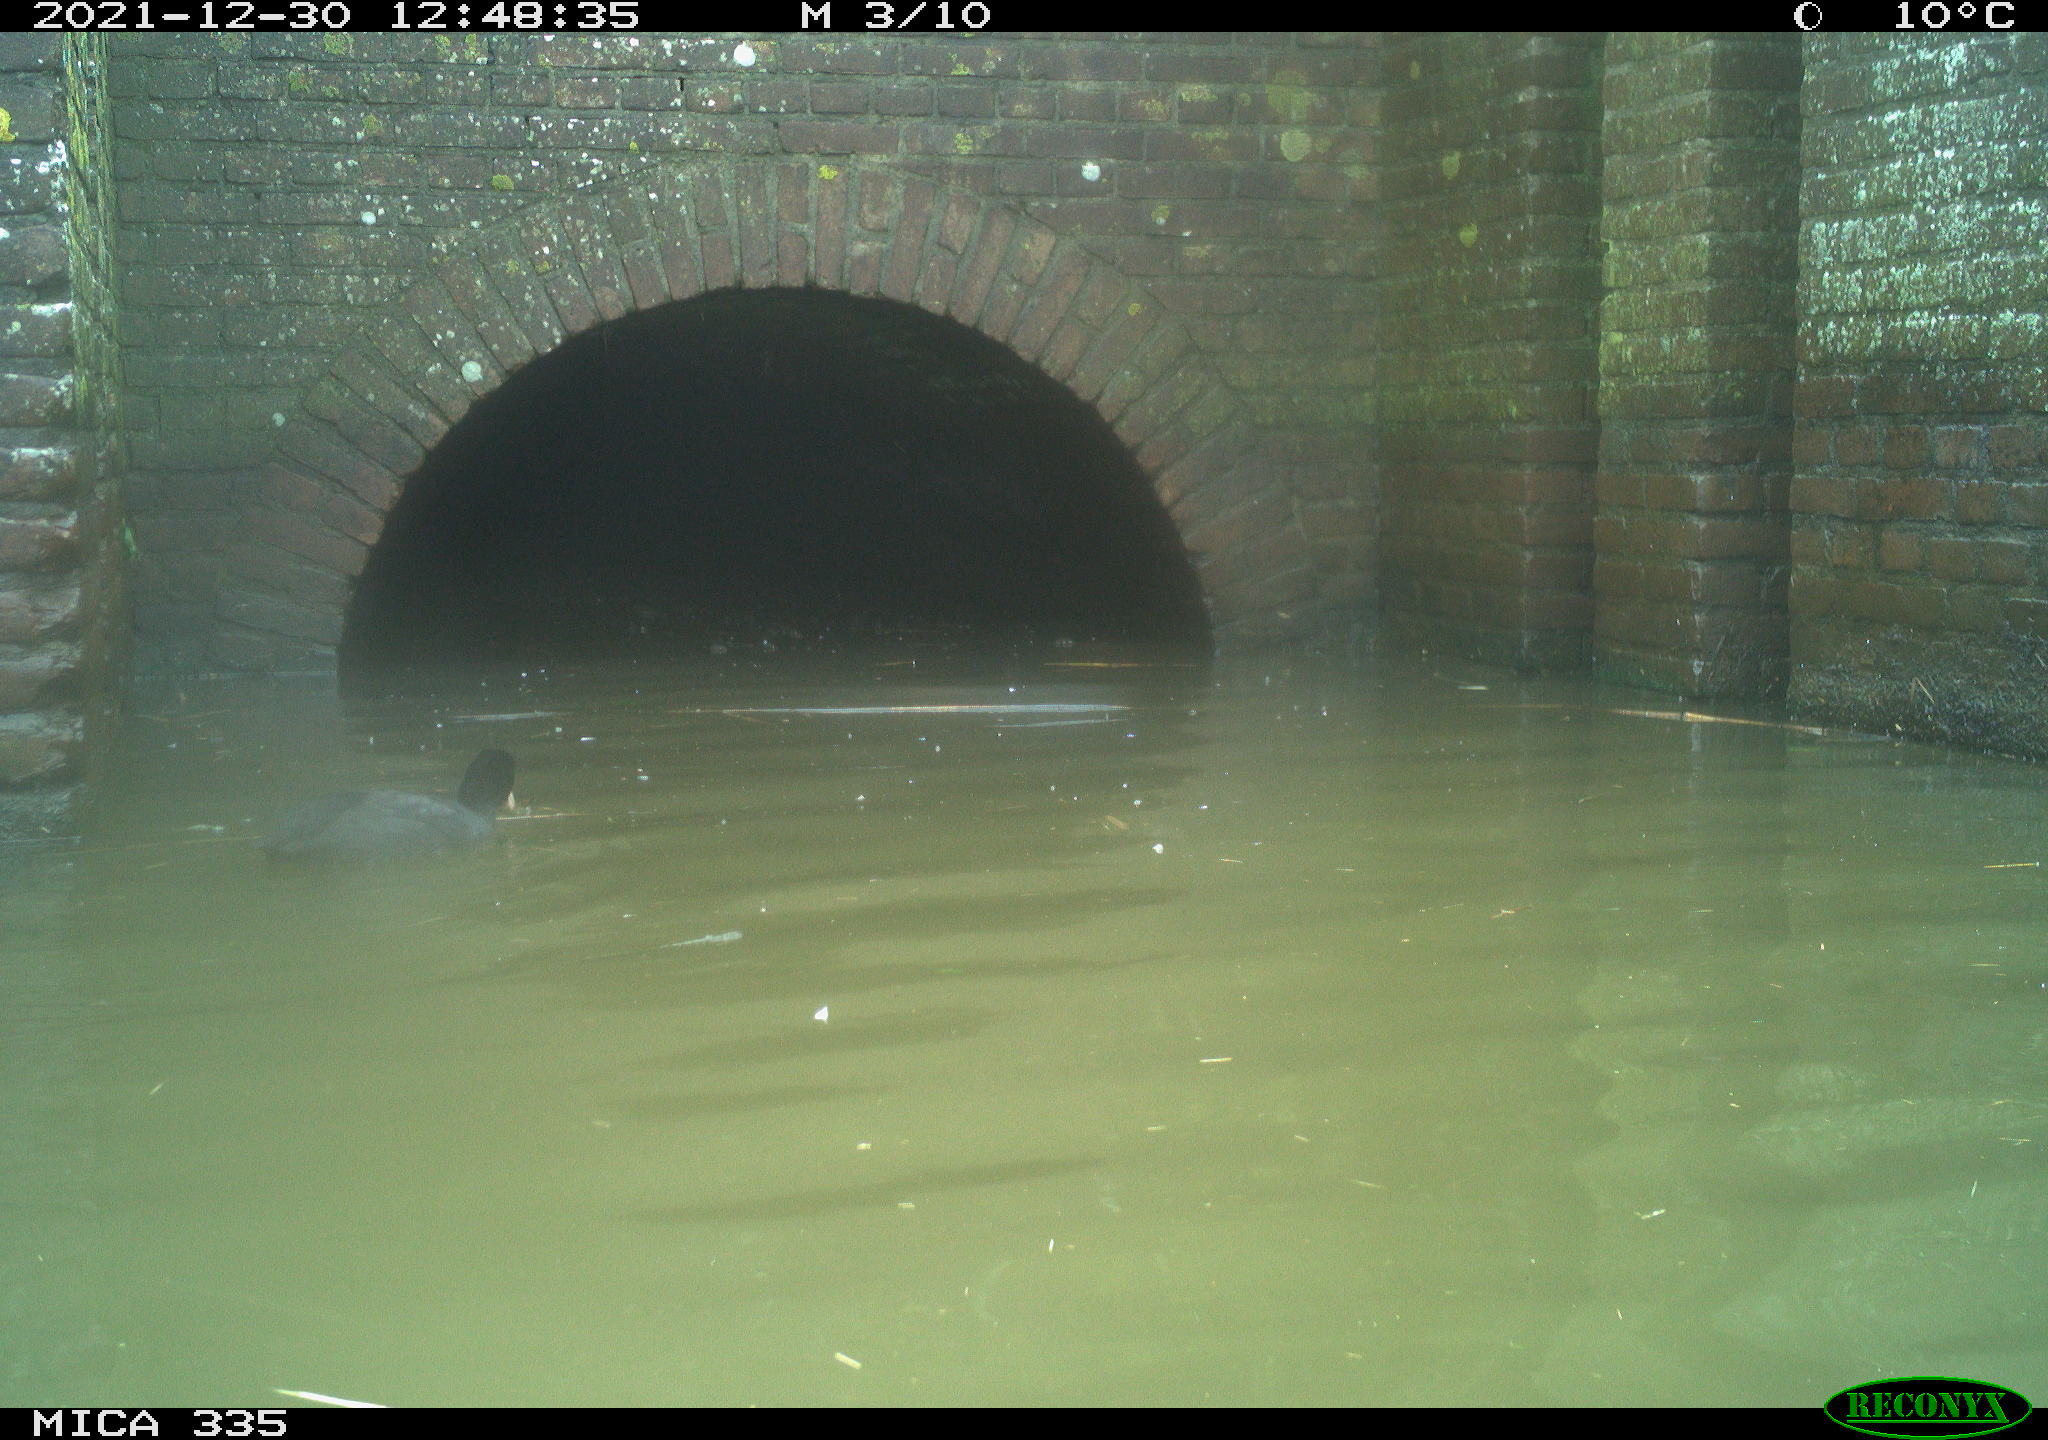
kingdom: Animalia
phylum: Chordata
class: Aves
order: Gruiformes
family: Rallidae
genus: Fulica
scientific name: Fulica atra
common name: Eurasian coot
